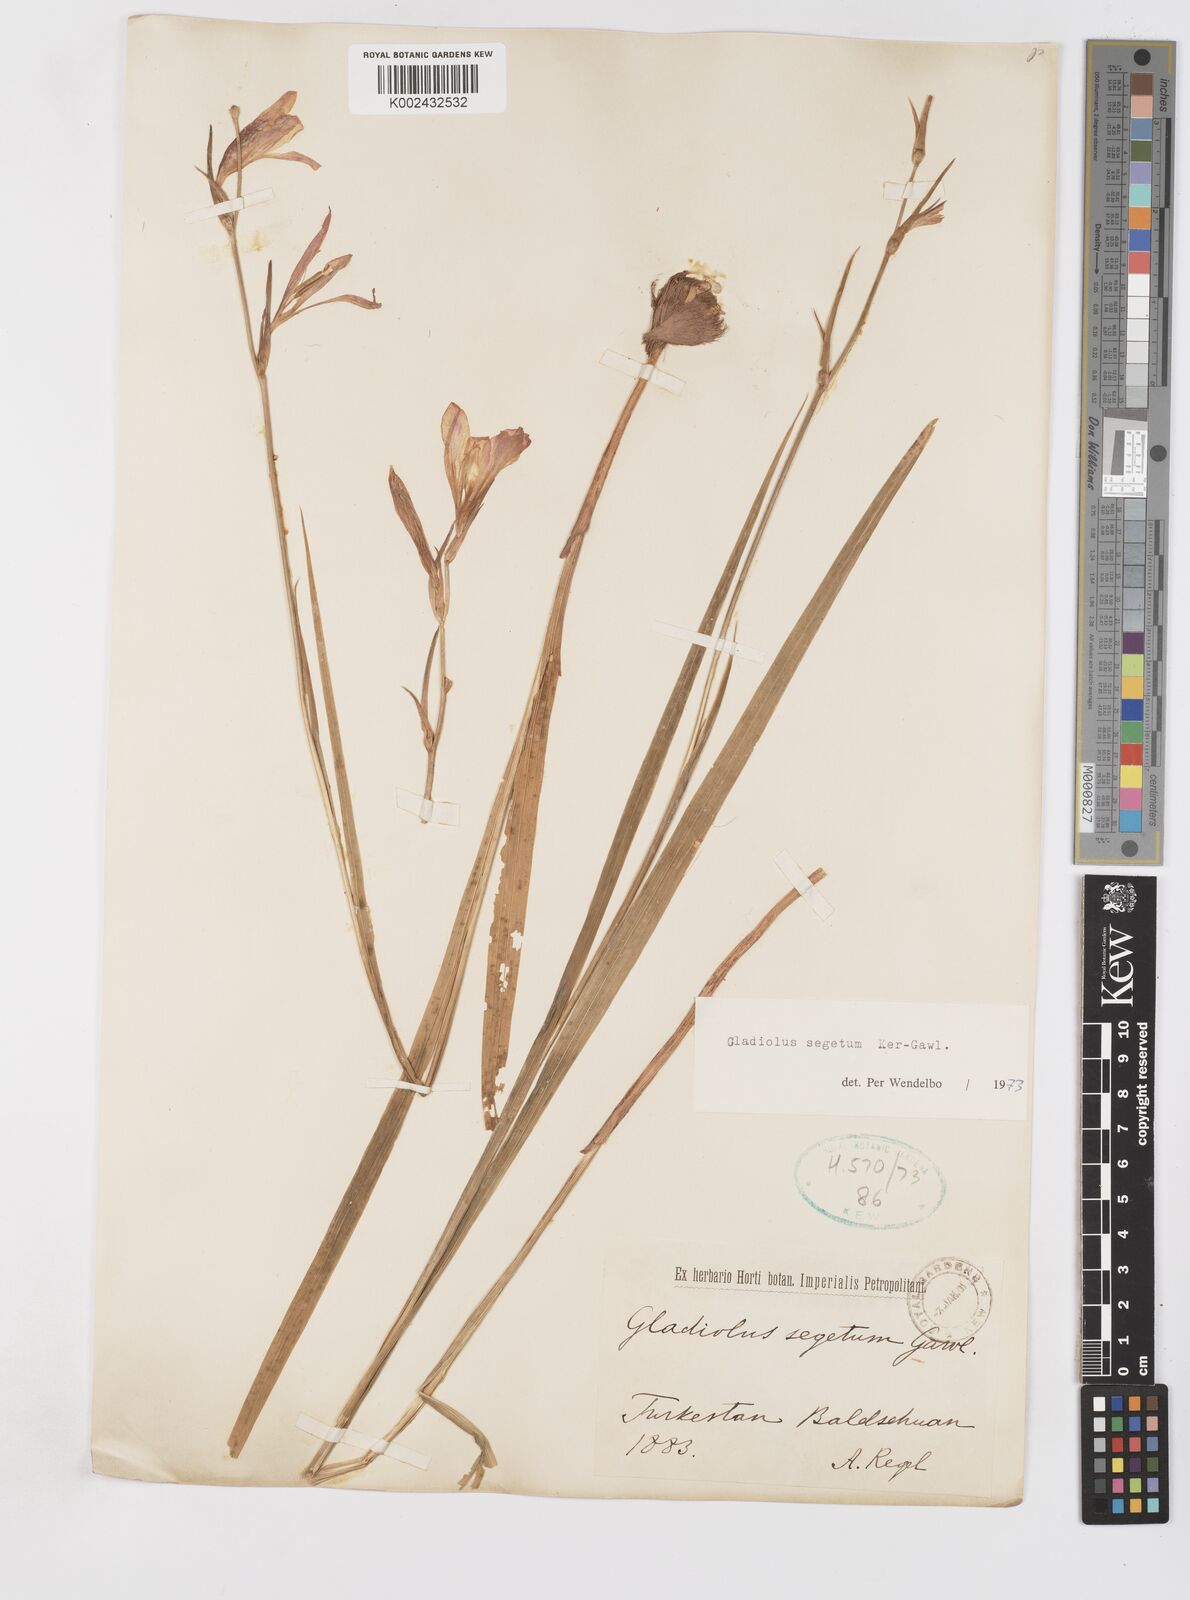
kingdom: Plantae
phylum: Tracheophyta
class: Liliopsida
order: Asparagales
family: Iridaceae
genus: Gladiolus
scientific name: Gladiolus italicus
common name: Field gladiolus
